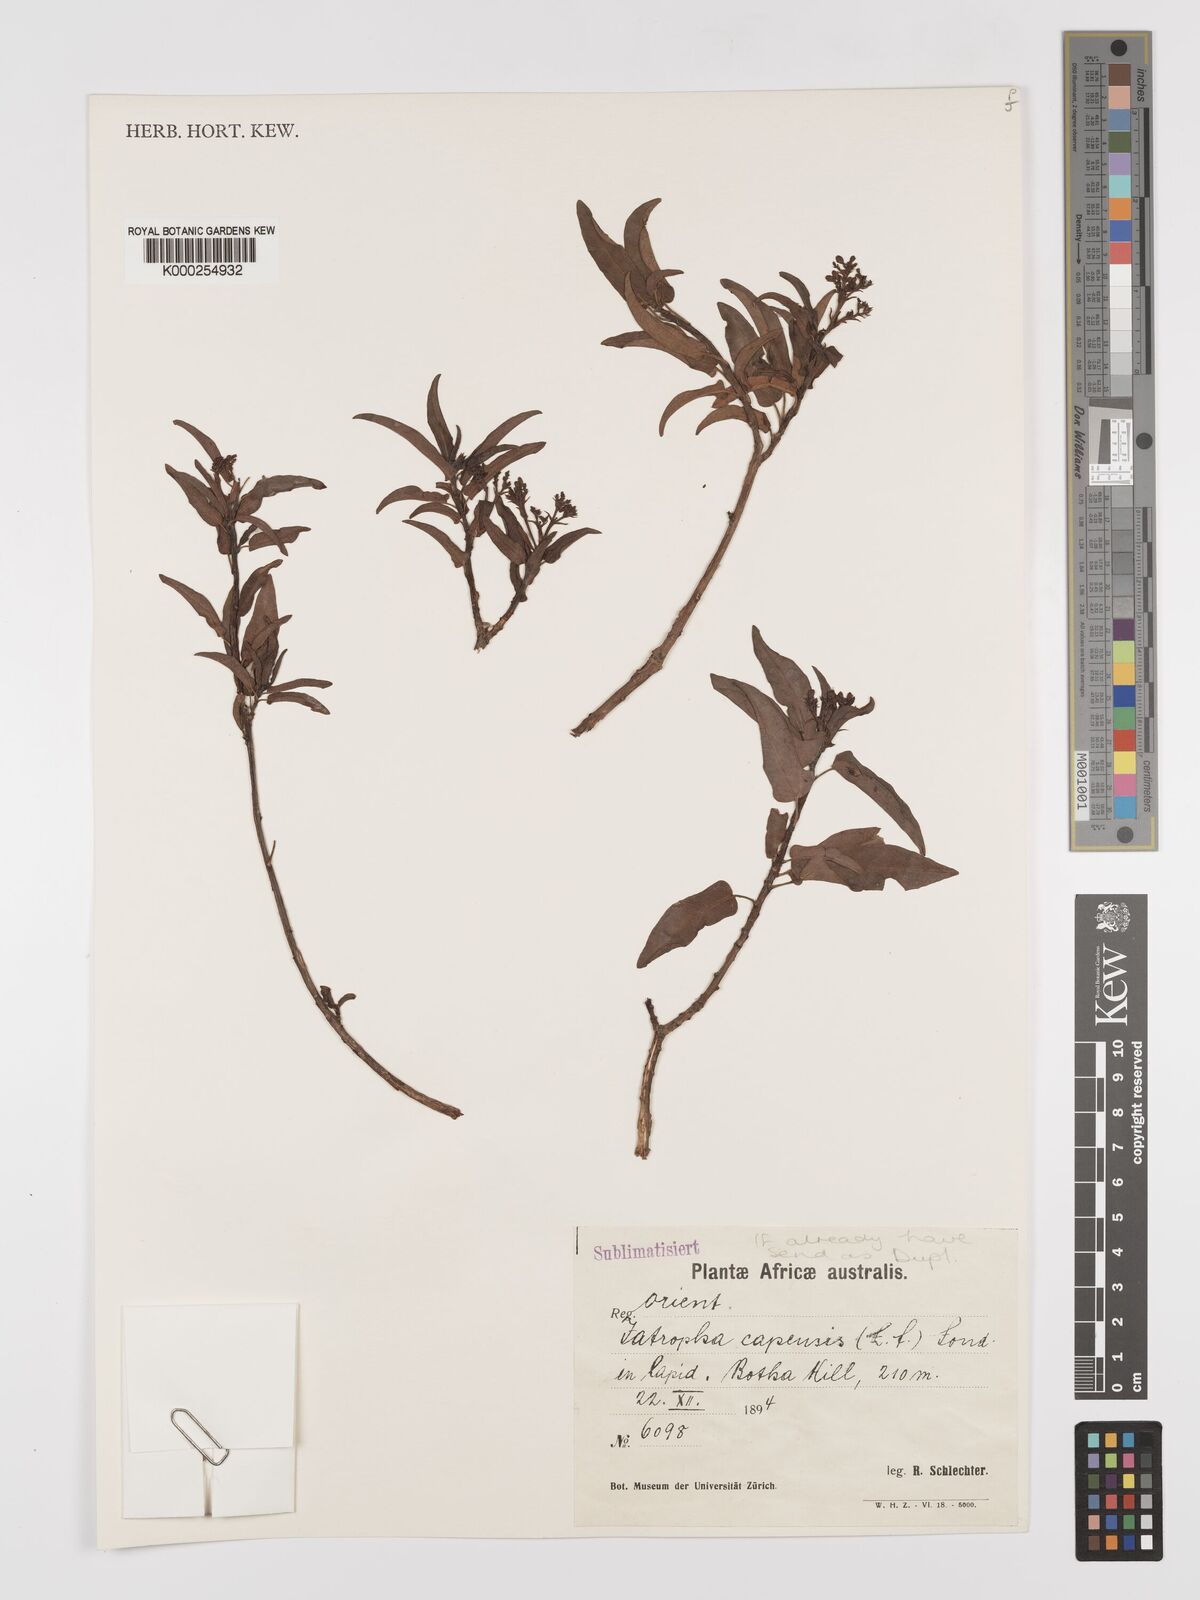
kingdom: Plantae
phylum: Tracheophyta
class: Magnoliopsida
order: Malpighiales
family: Euphorbiaceae
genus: Jatropha
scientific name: Jatropha capensis
